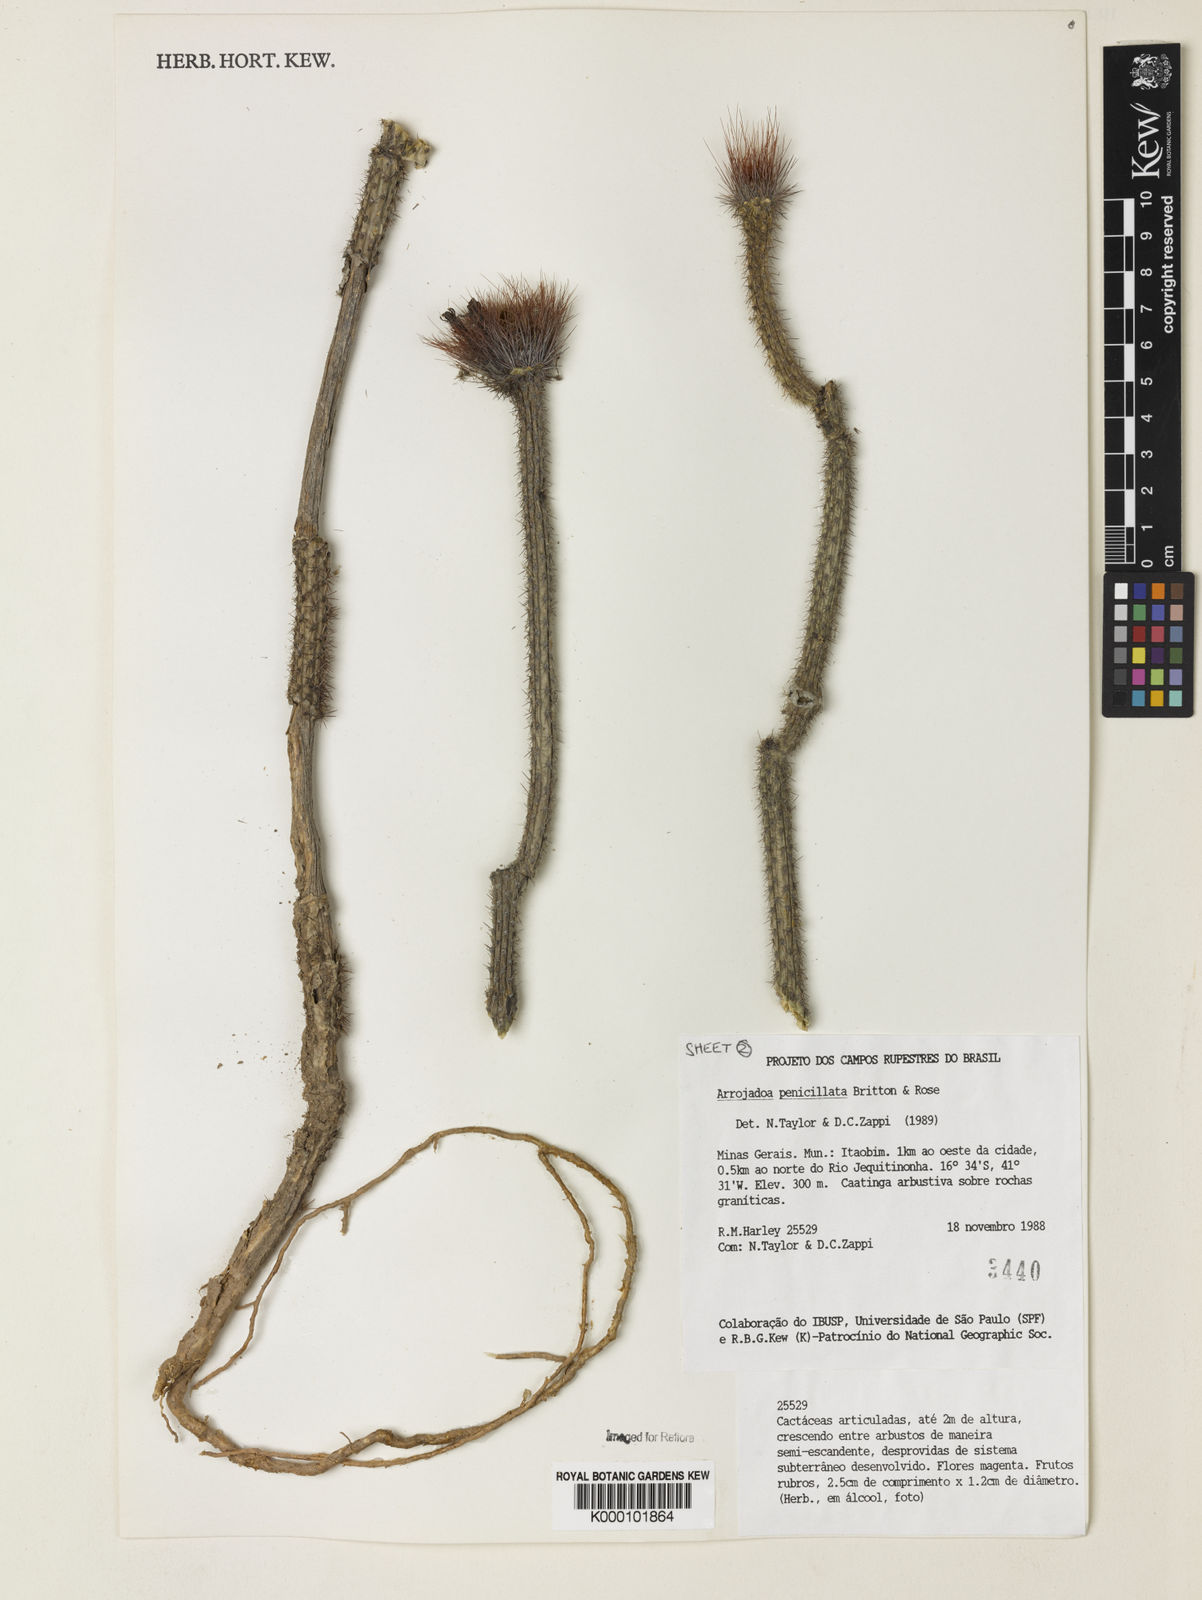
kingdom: Plantae
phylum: Tracheophyta
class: Magnoliopsida
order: Caryophyllales
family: Cactaceae
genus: Arrojadoa
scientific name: Arrojadoa
